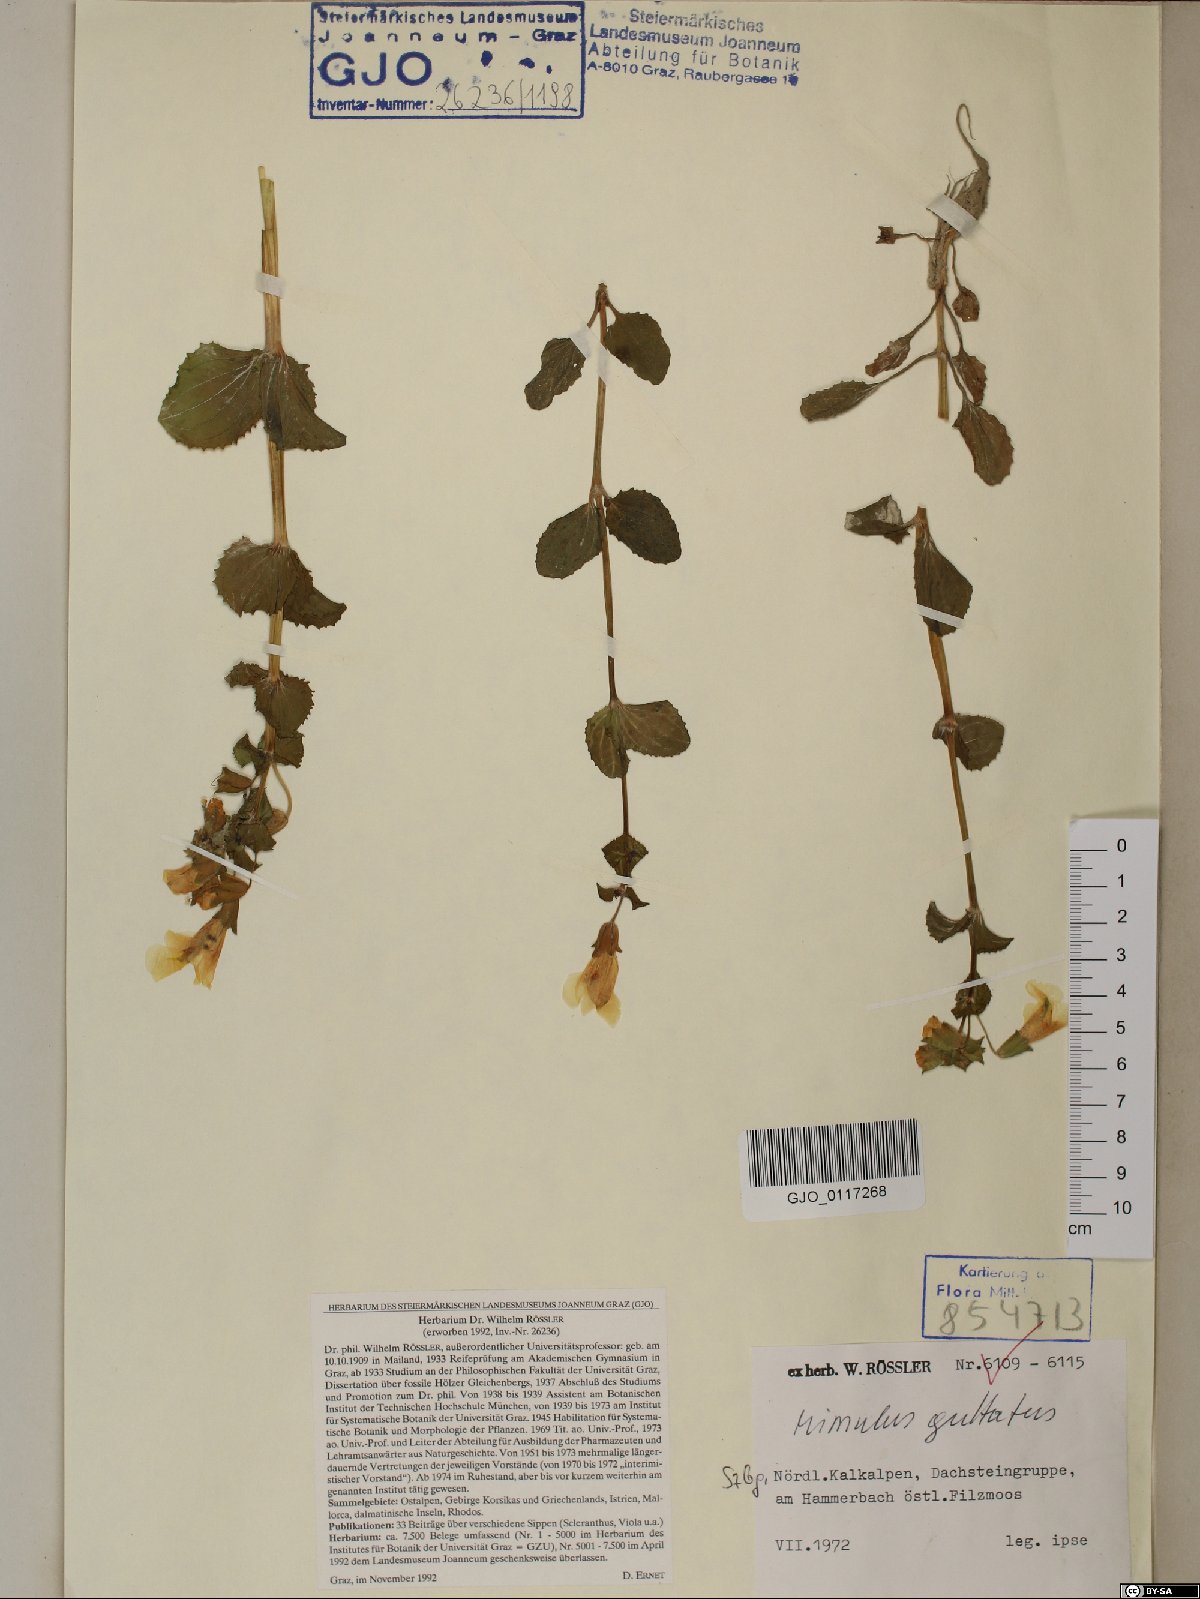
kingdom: Plantae
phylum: Tracheophyta
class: Magnoliopsida
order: Lamiales
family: Phrymaceae
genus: Erythranthe
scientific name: Erythranthe guttata
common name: Monkeyflower
